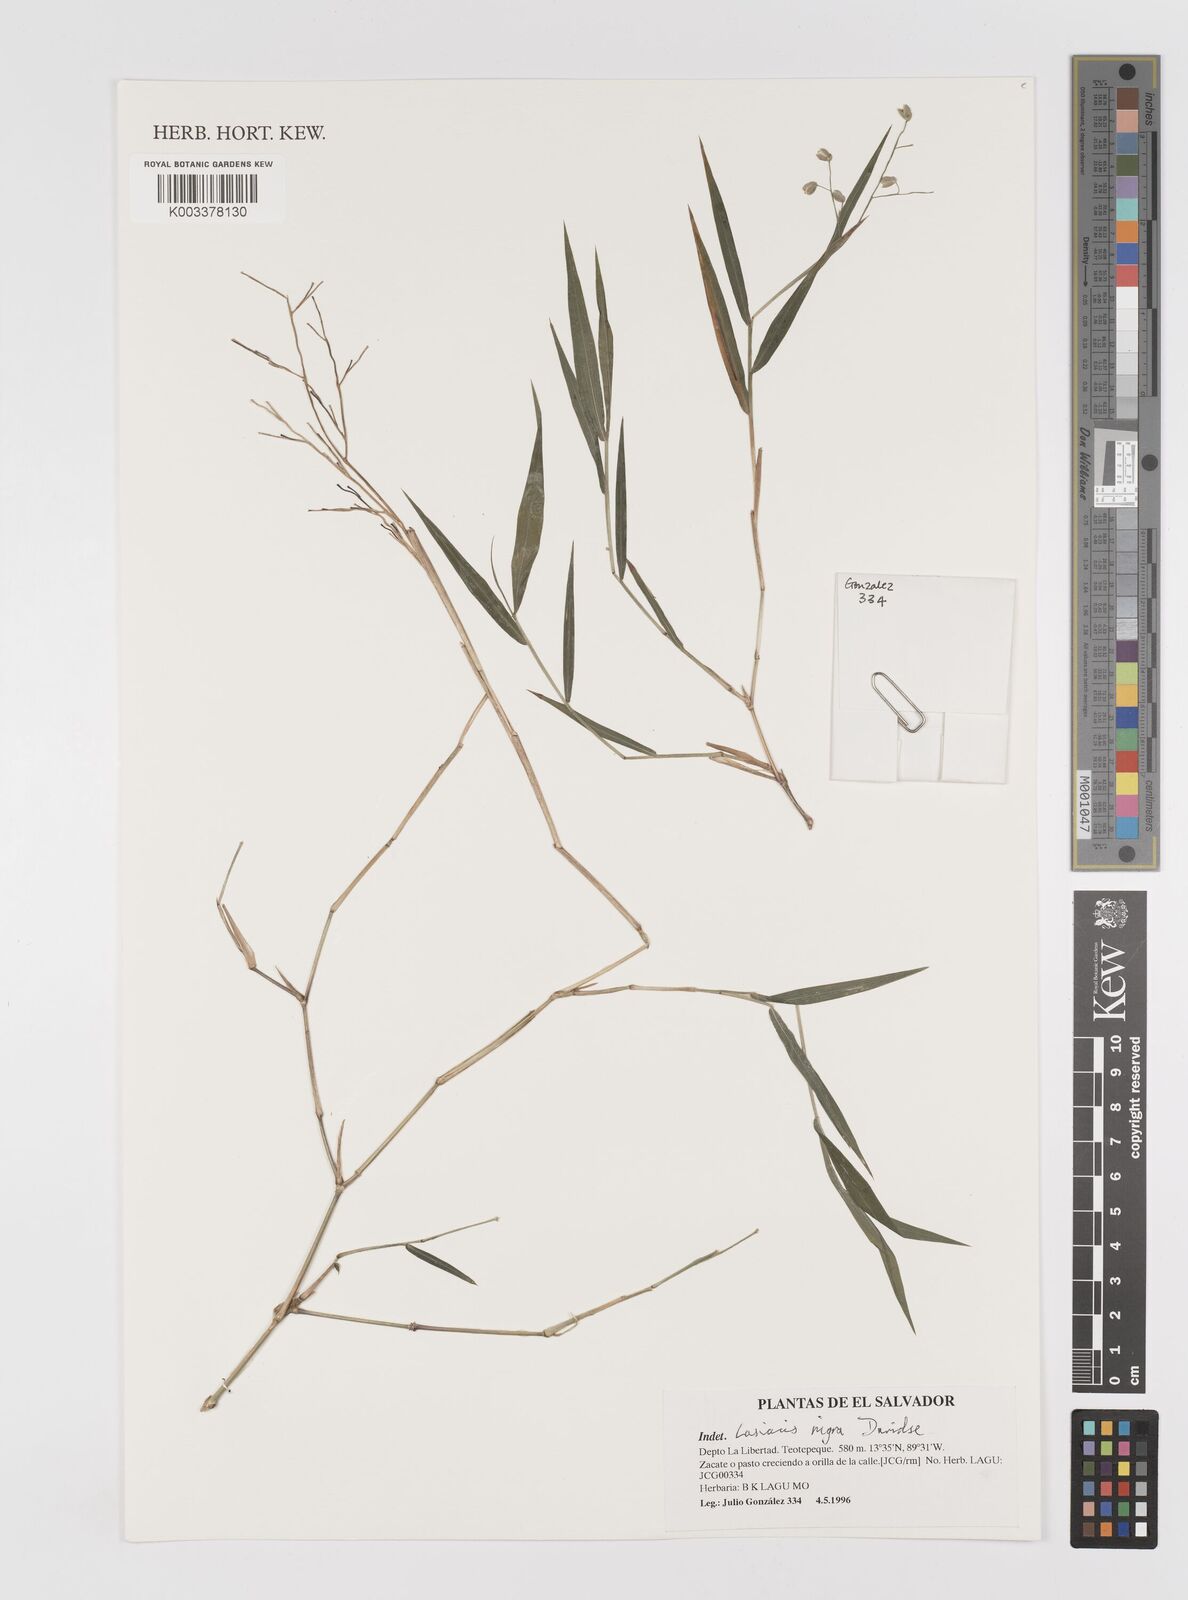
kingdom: Plantae
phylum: Tracheophyta
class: Liliopsida
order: Poales
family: Poaceae
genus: Lasiacis
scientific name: Lasiacis nigra
